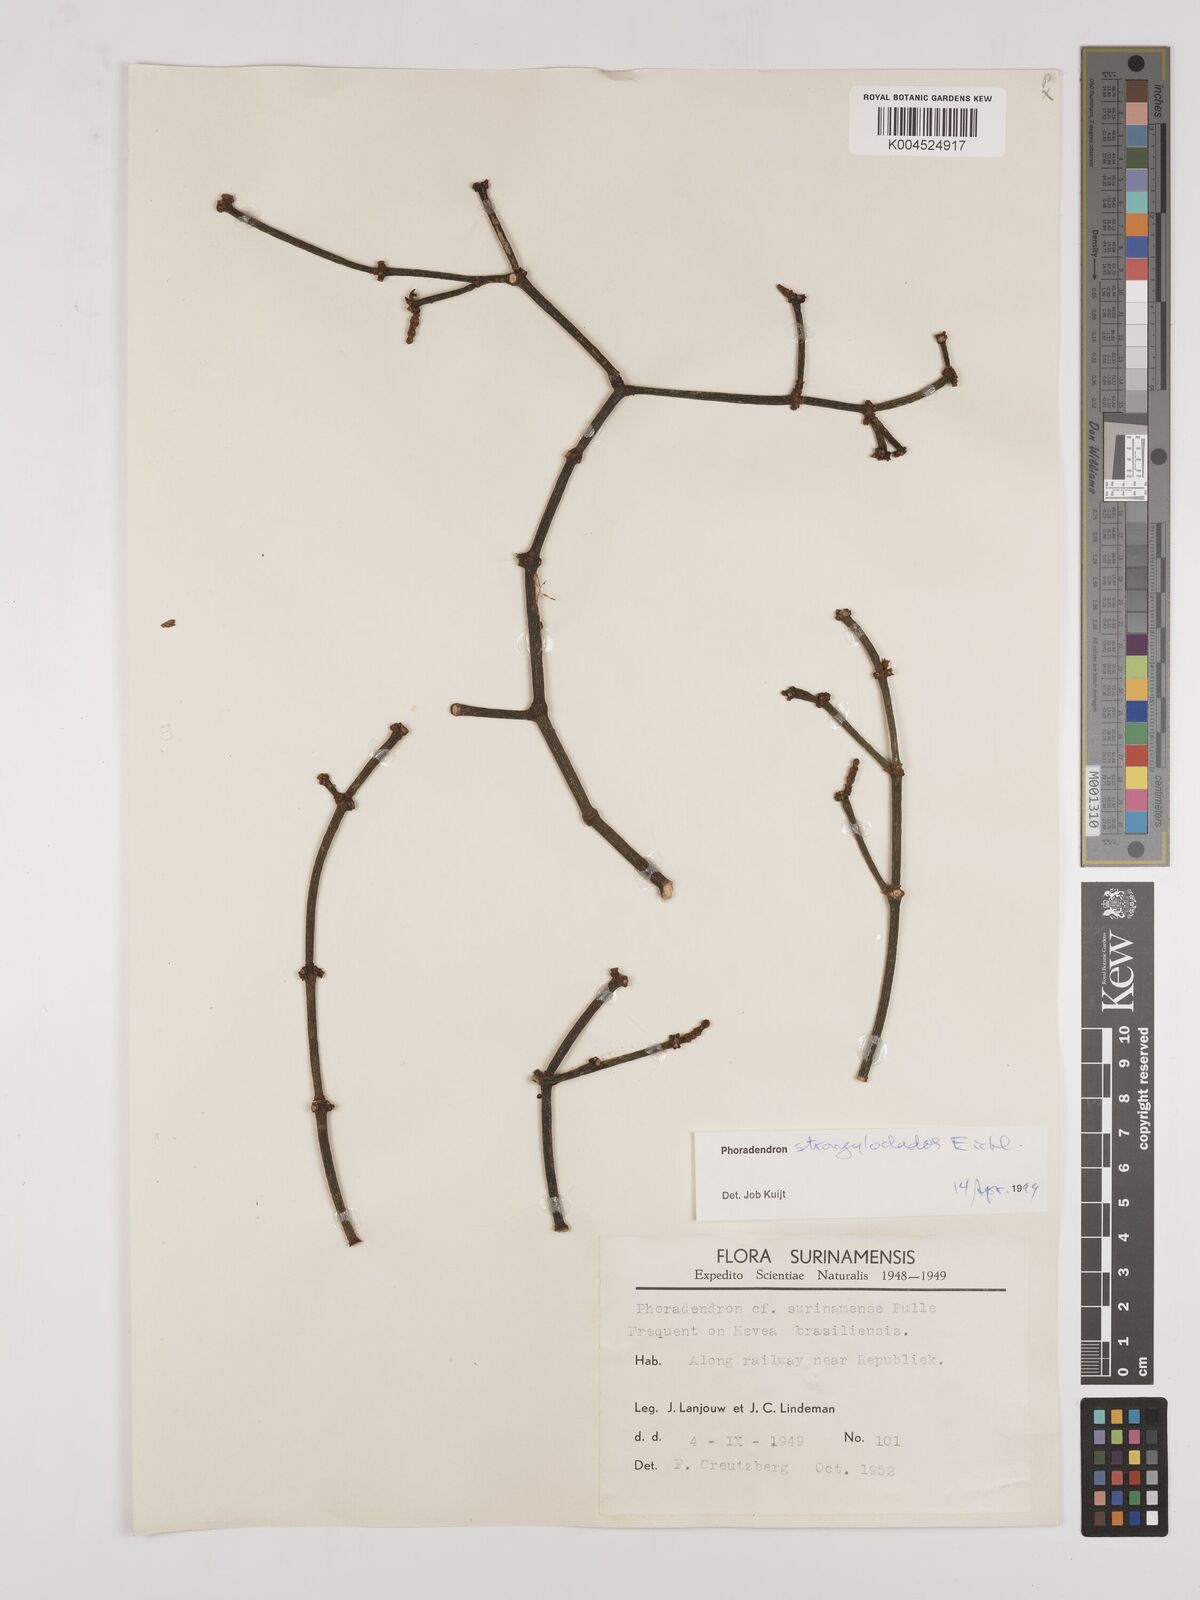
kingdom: Plantae
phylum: Tracheophyta
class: Magnoliopsida
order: Santalales
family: Viscaceae
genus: Phoradendron
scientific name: Phoradendron strongyloclados
